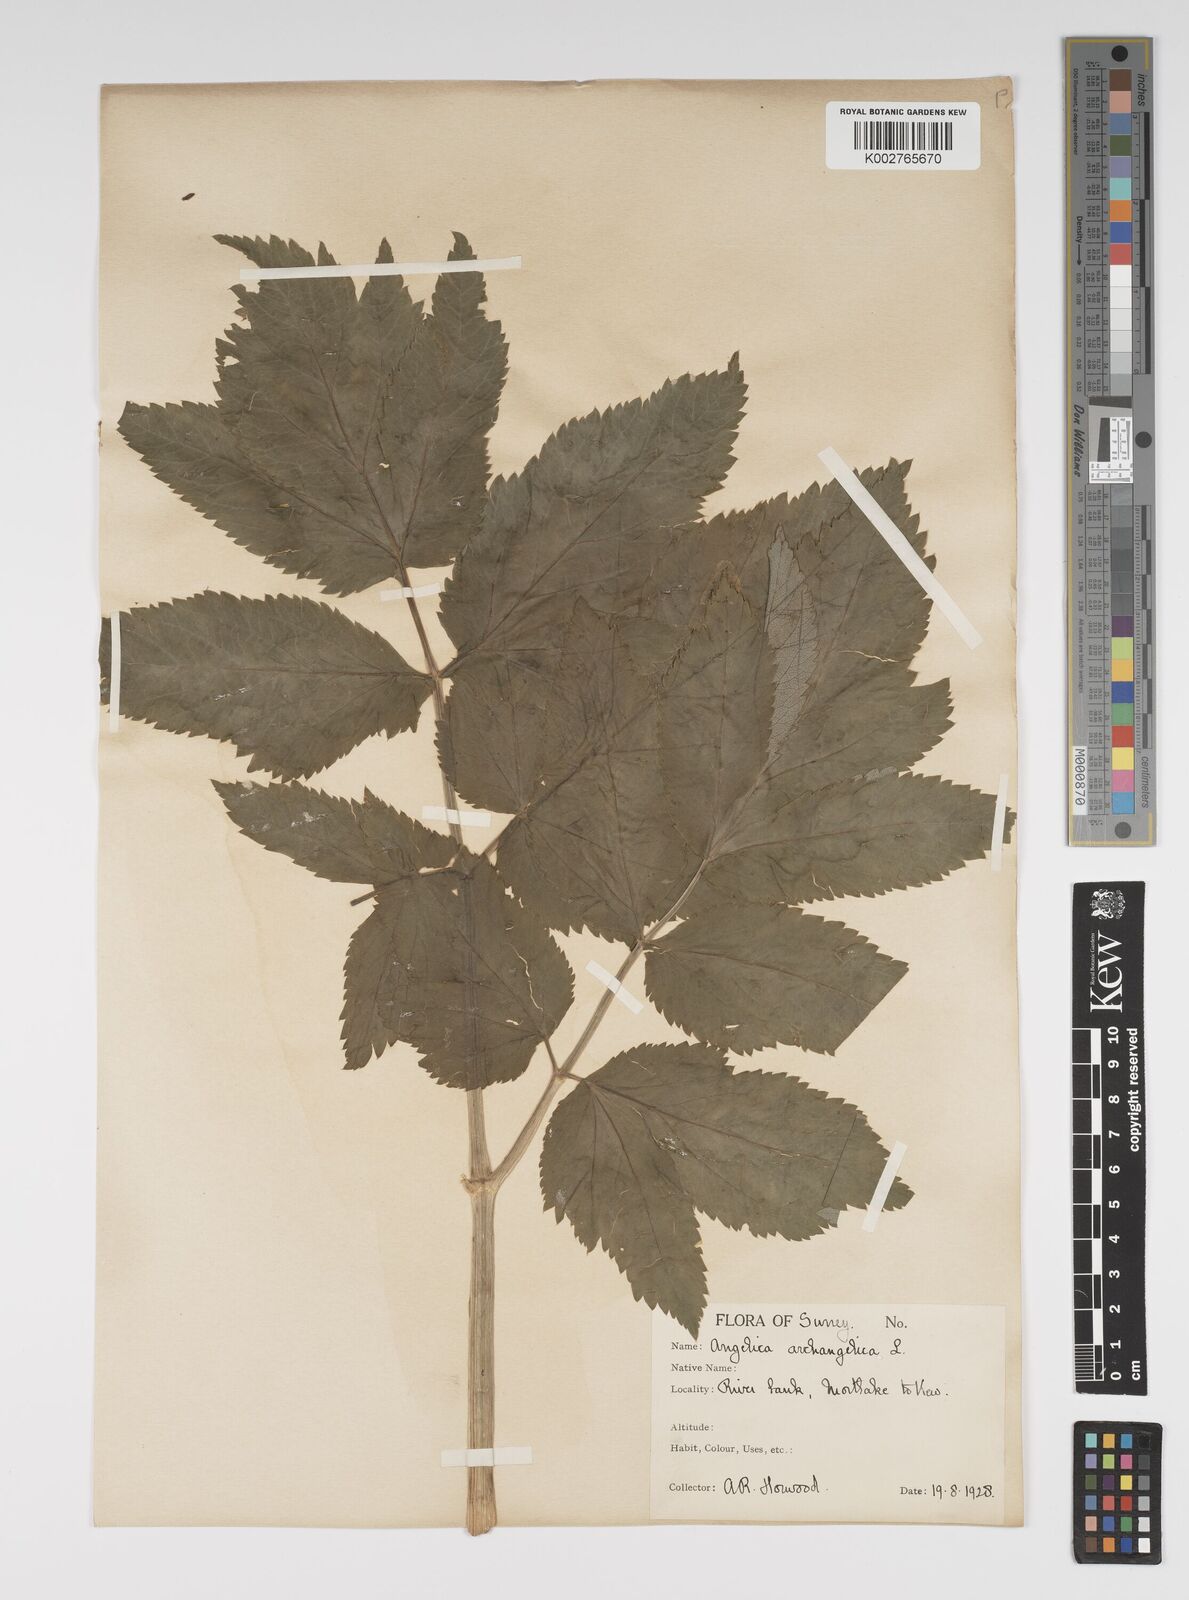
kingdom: Plantae
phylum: Tracheophyta
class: Magnoliopsida
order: Apiales
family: Apiaceae
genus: Angelica
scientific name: Angelica archangelica
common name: Garden angelica
